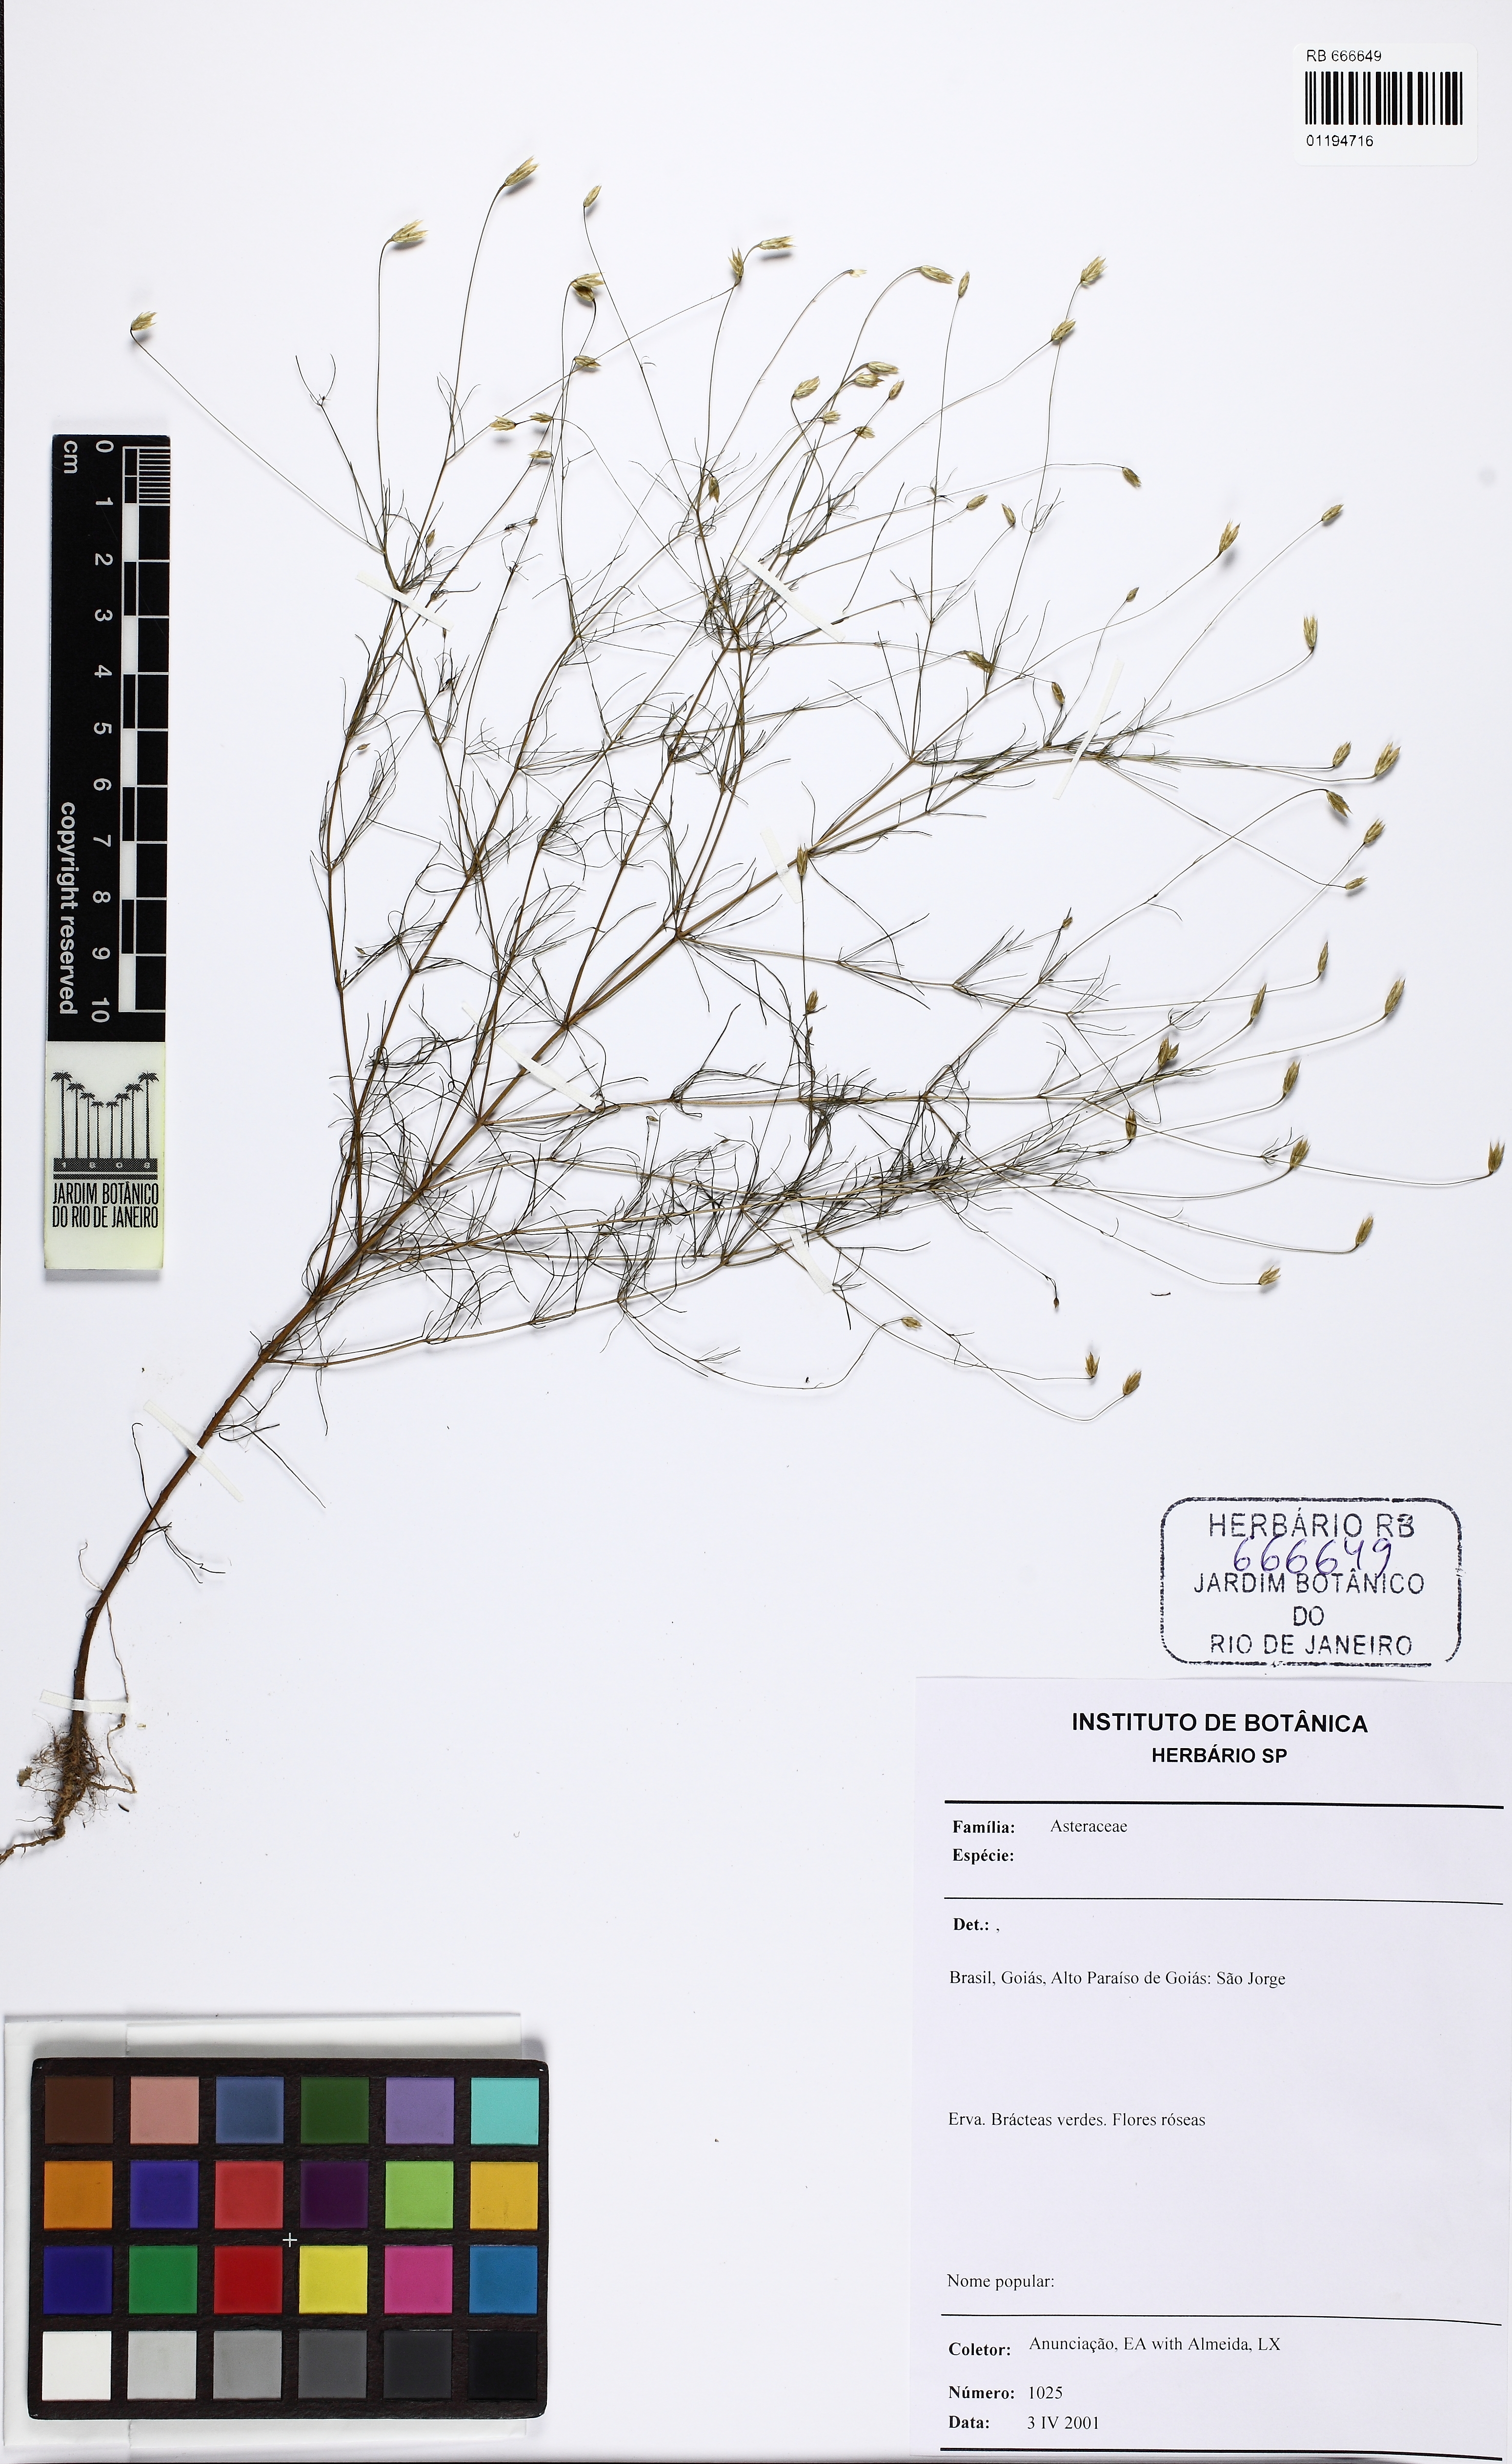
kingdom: Plantae
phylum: Tracheophyta
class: Magnoliopsida
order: Asterales
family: Asteraceae
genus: Praxelis
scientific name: Praxelis
